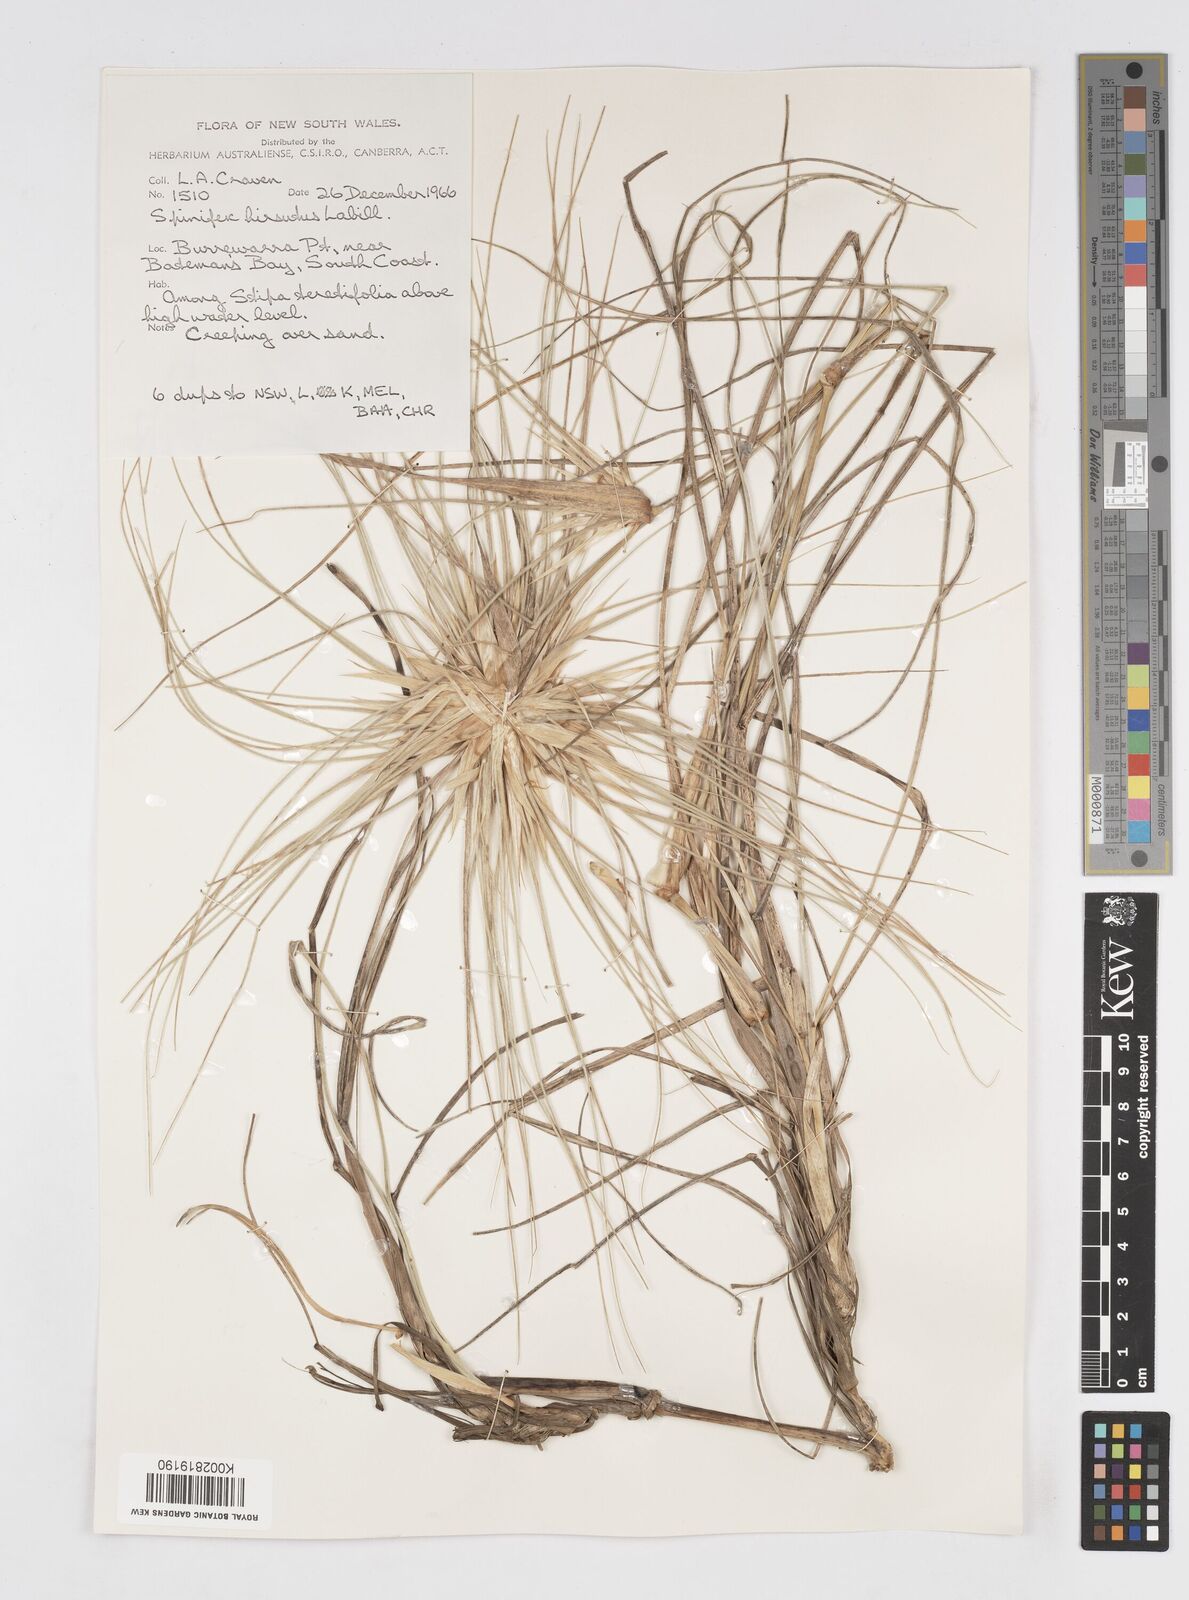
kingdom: Plantae
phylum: Tracheophyta
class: Liliopsida
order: Poales
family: Poaceae
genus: Spinifex
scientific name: Spinifex sericeus
